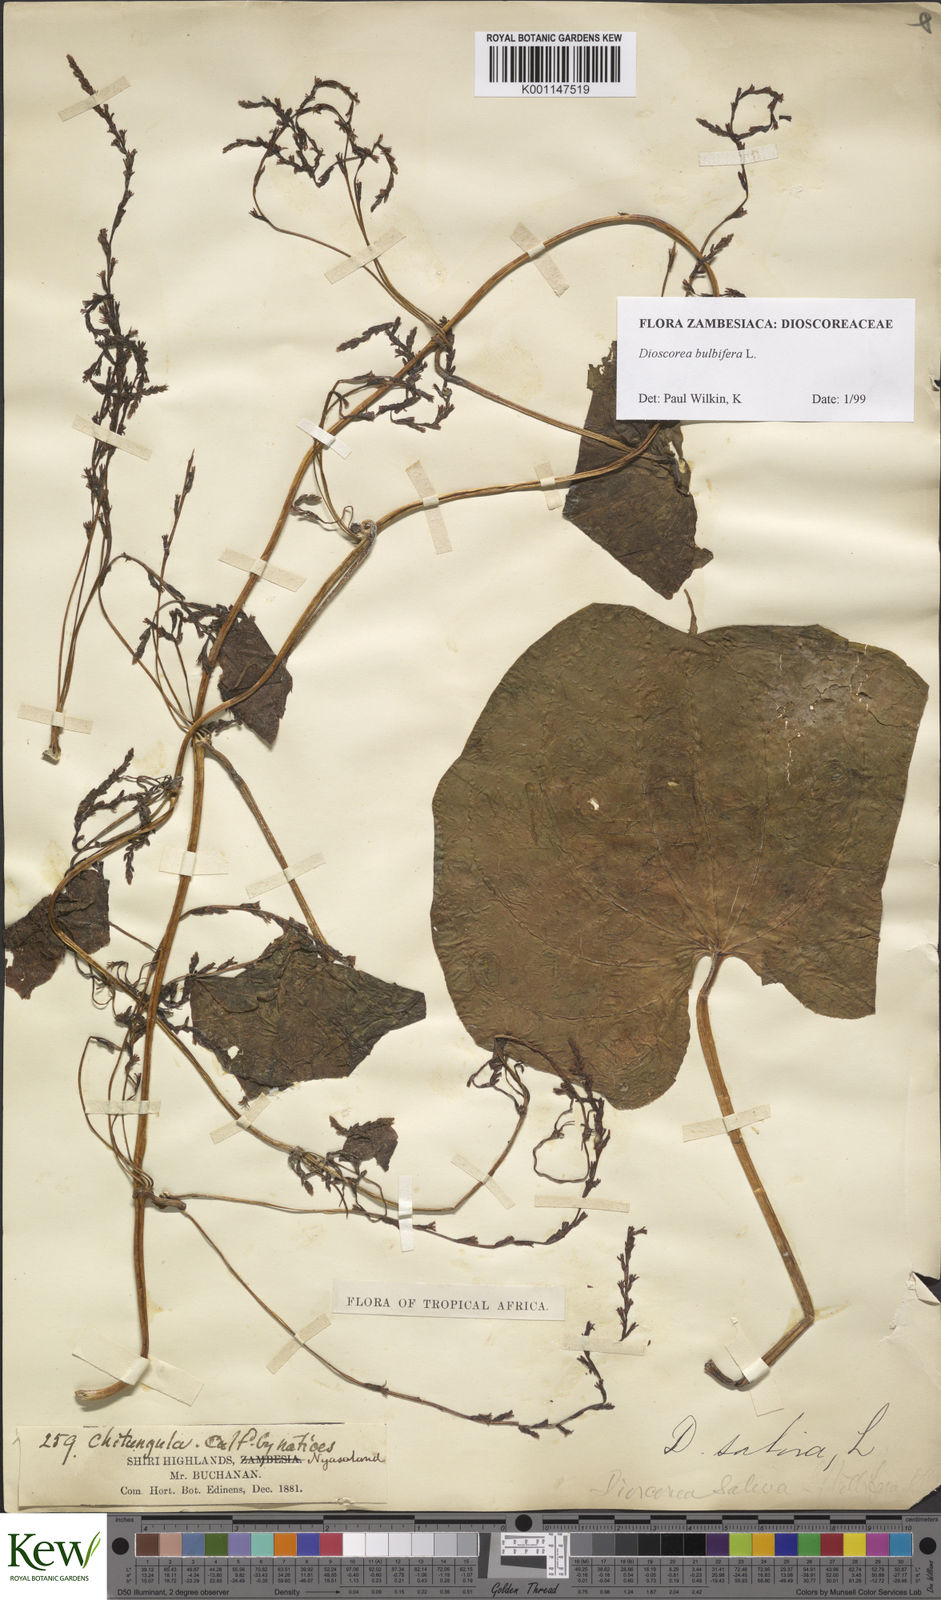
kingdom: Plantae
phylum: Tracheophyta
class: Liliopsida
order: Dioscoreales
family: Dioscoreaceae
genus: Dioscorea
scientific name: Dioscorea bulbifera
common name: Air yam
